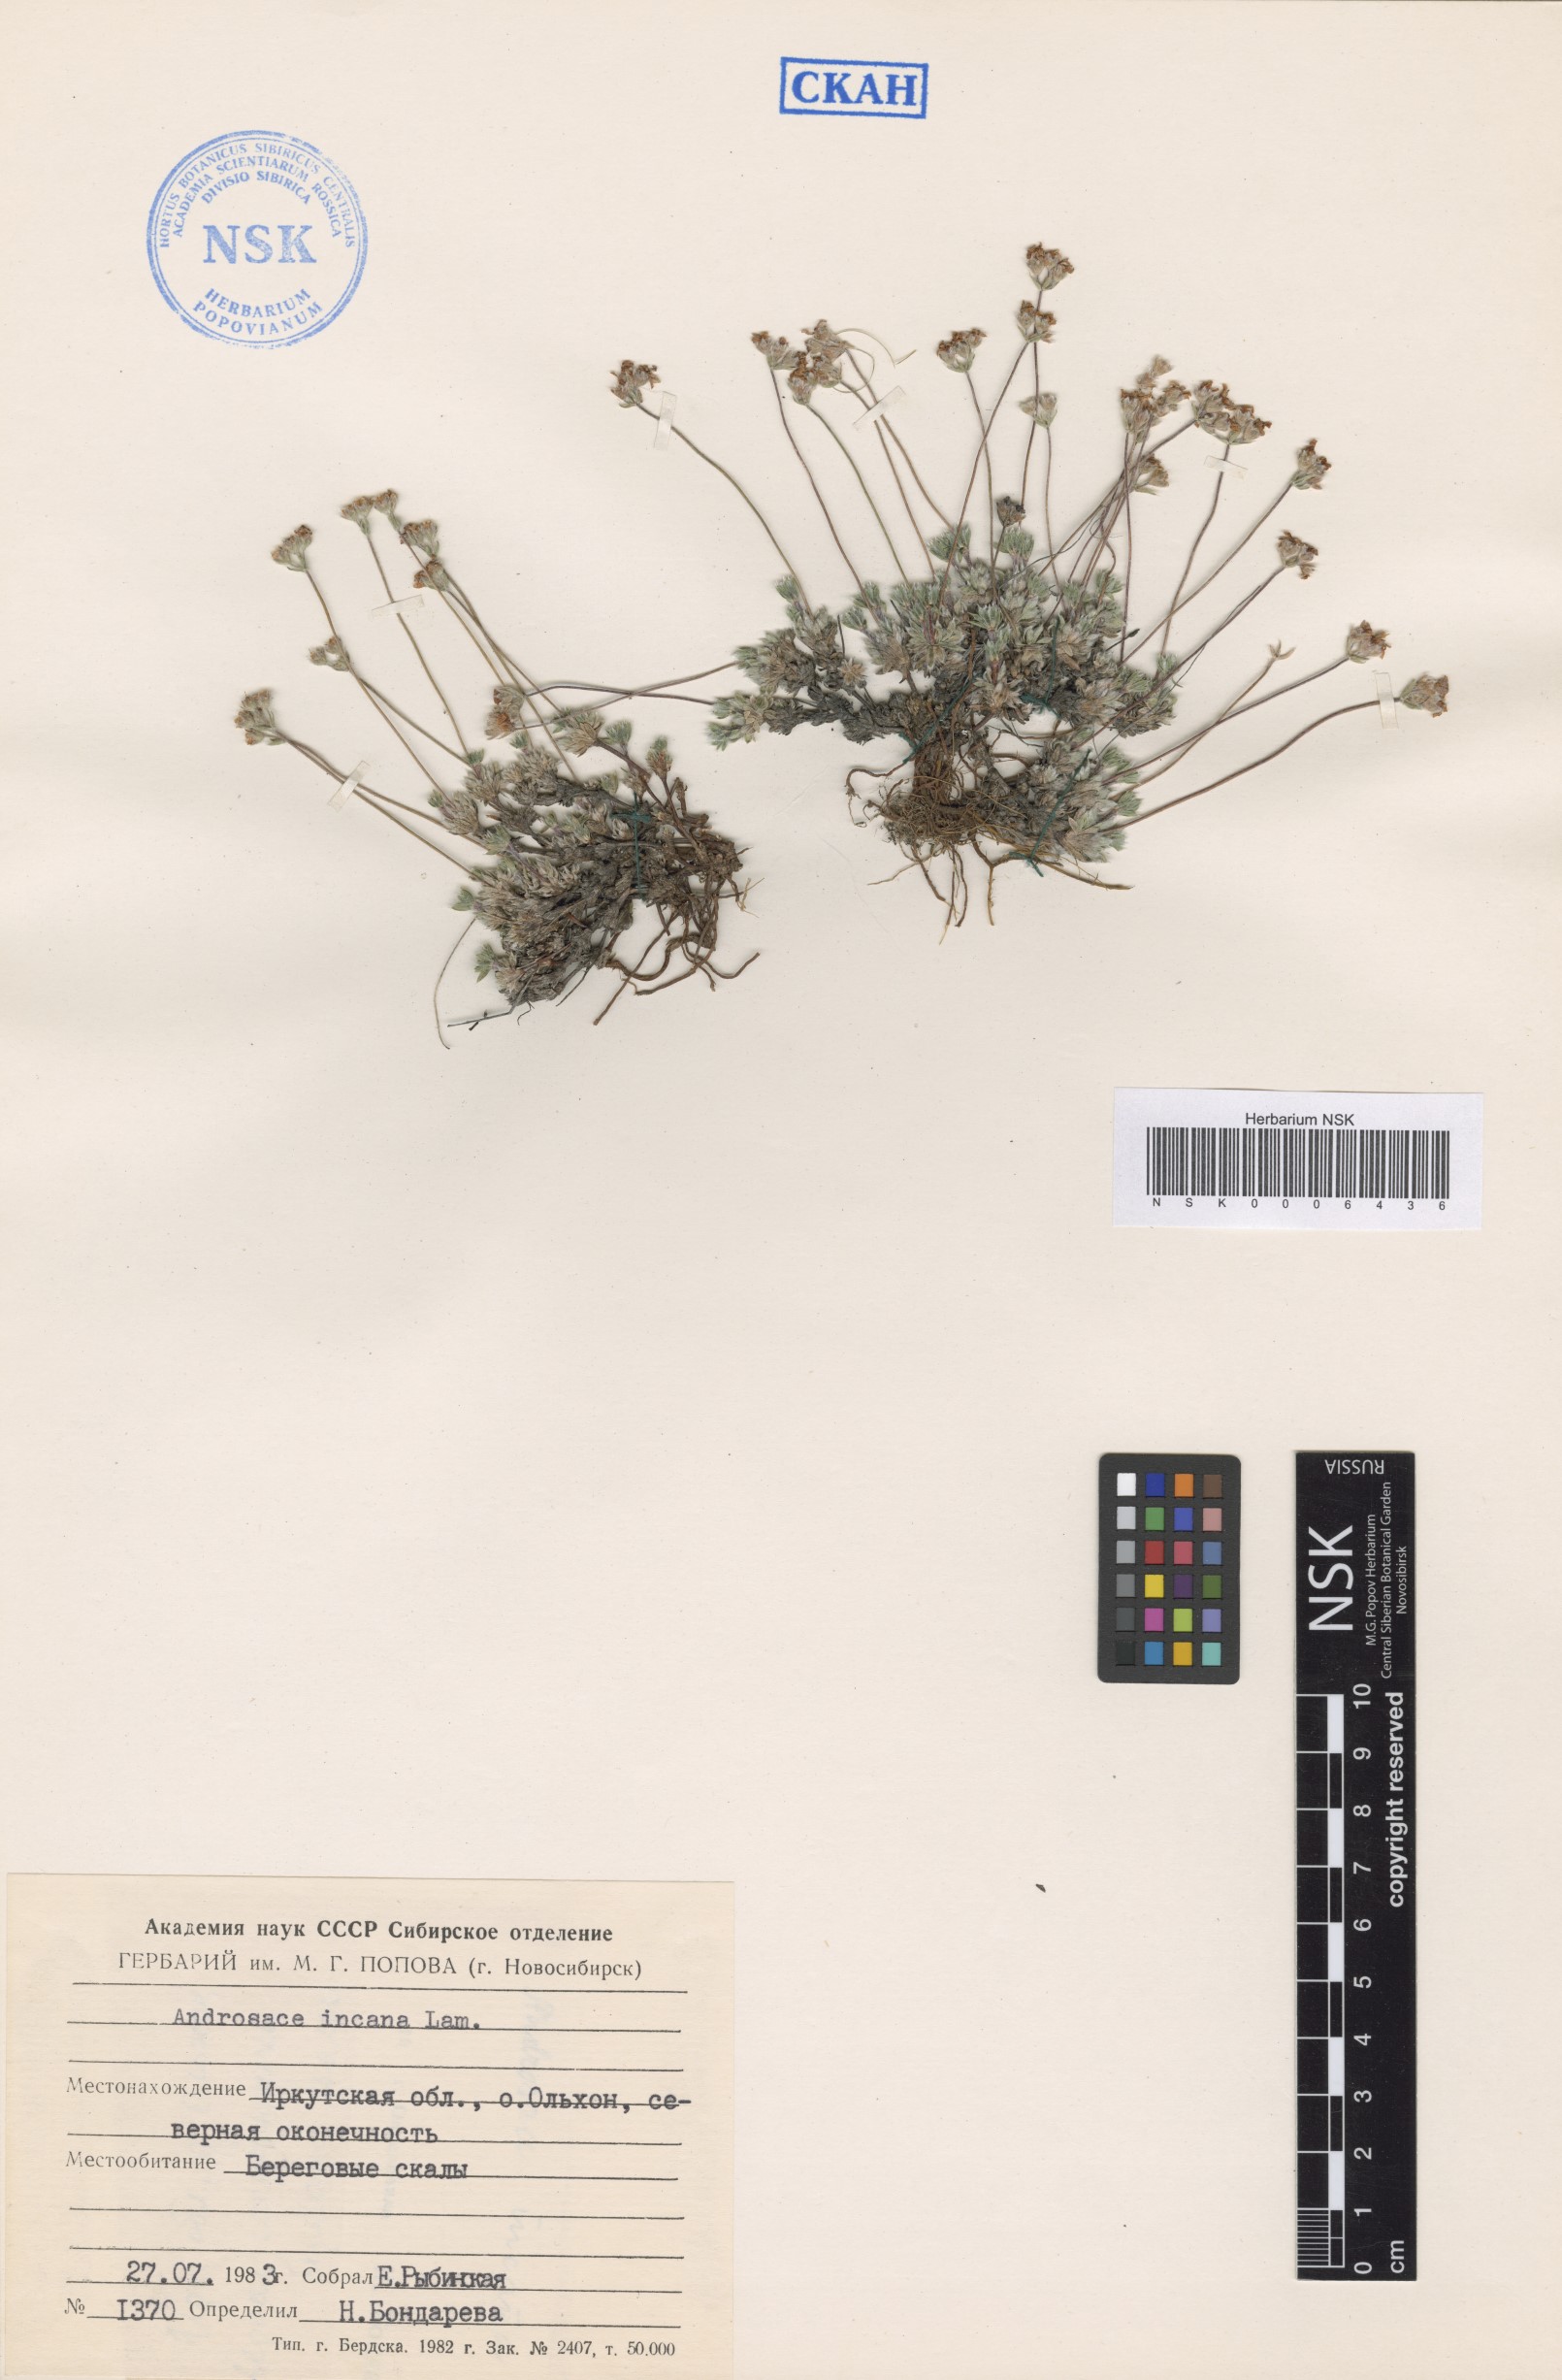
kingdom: Plantae
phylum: Tracheophyta
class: Magnoliopsida
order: Ericales
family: Primulaceae
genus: Androsace
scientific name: Androsace incana
